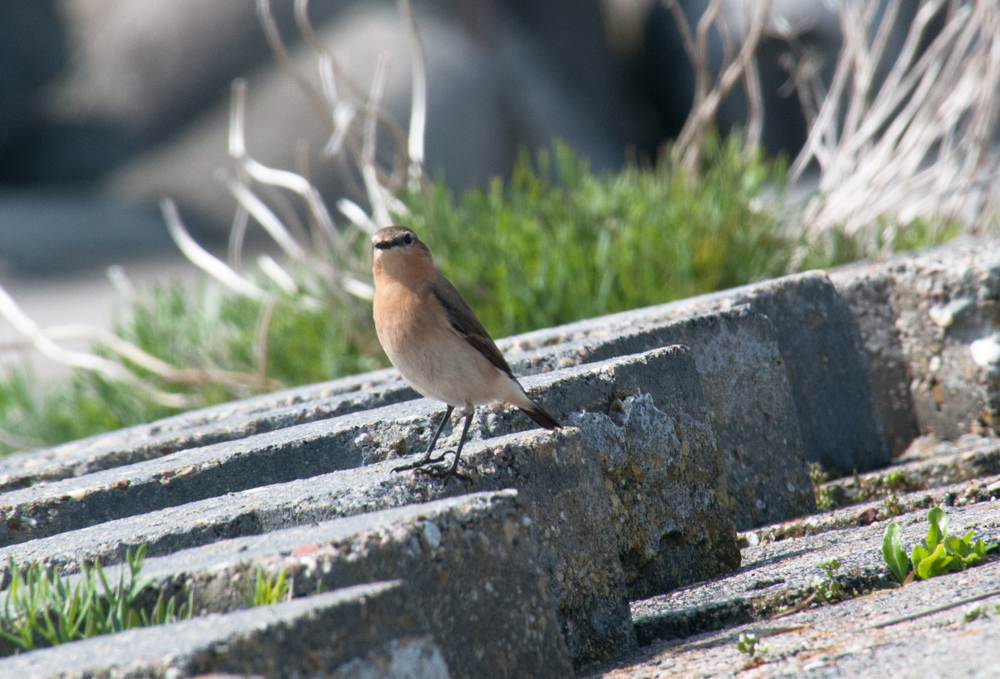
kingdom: Animalia
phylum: Chordata
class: Aves
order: Passeriformes
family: Muscicapidae
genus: Oenanthe
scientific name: Oenanthe oenanthe
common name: Northern wheatear
